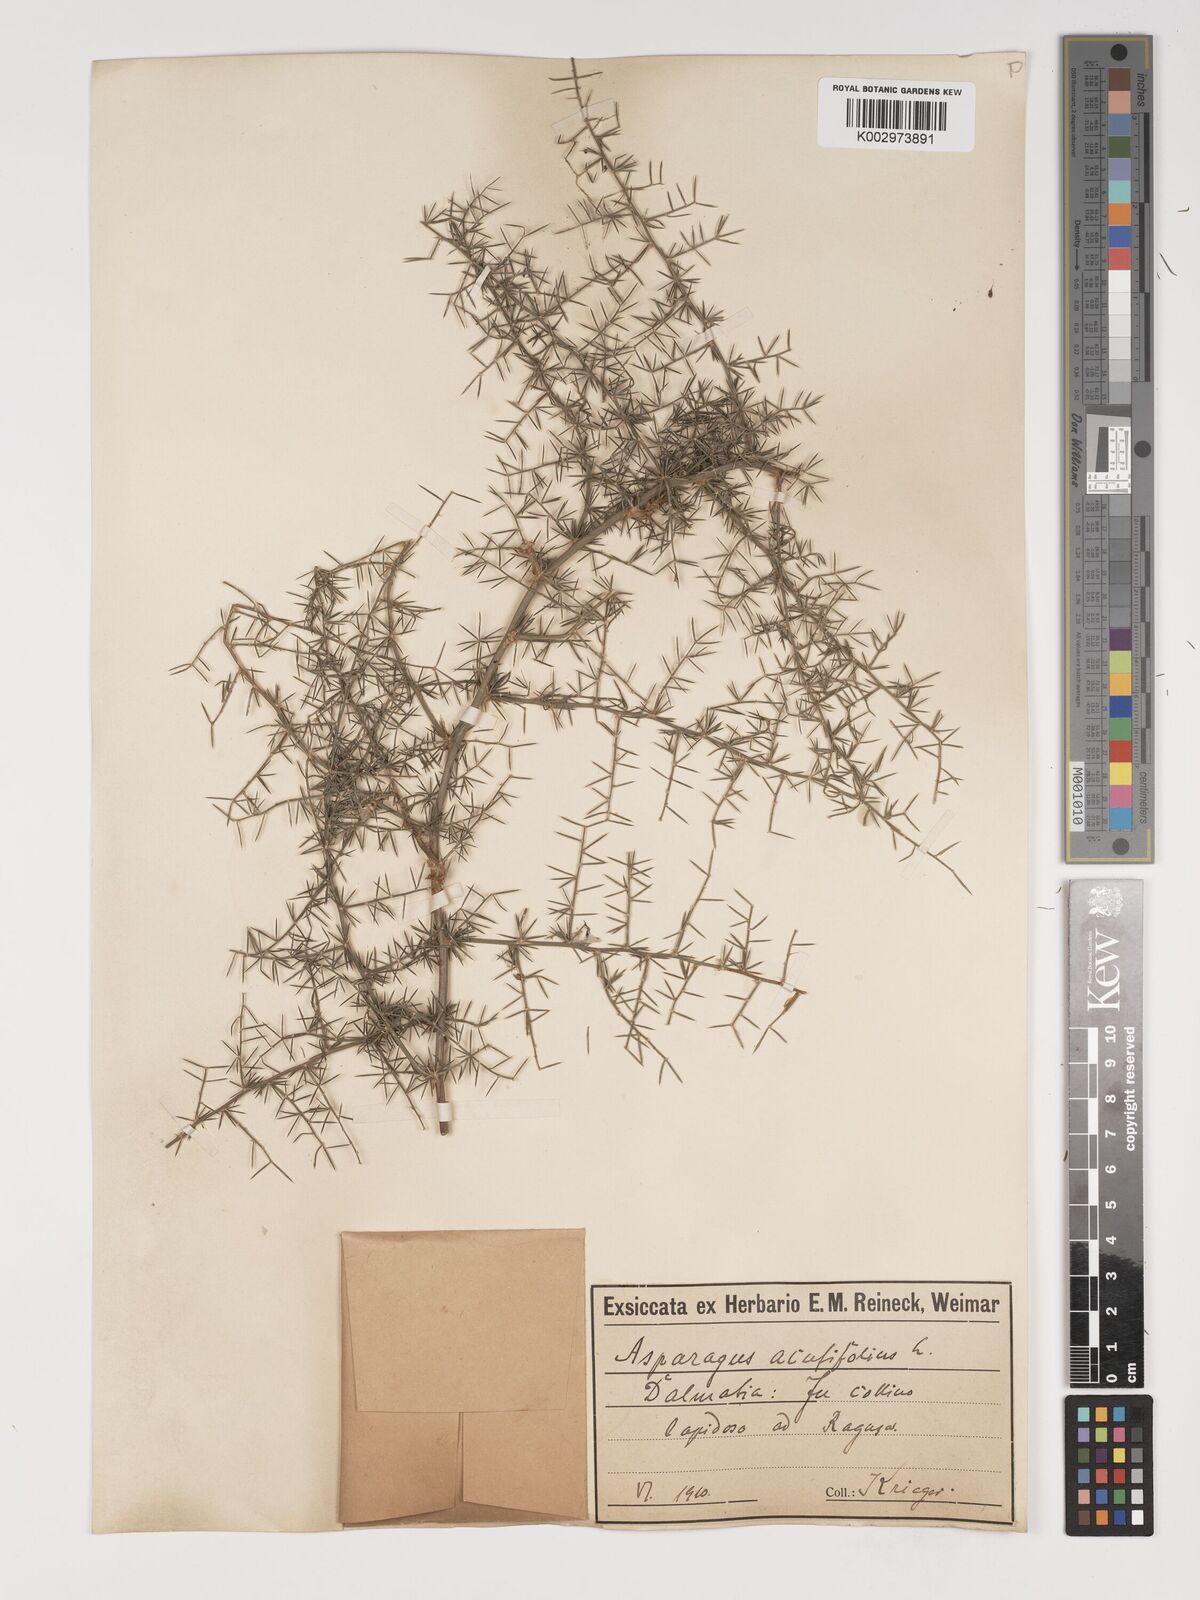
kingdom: Plantae
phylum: Tracheophyta
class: Liliopsida
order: Asparagales
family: Asparagaceae
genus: Asparagus
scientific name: Asparagus acutifolius
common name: Wild asparagus
